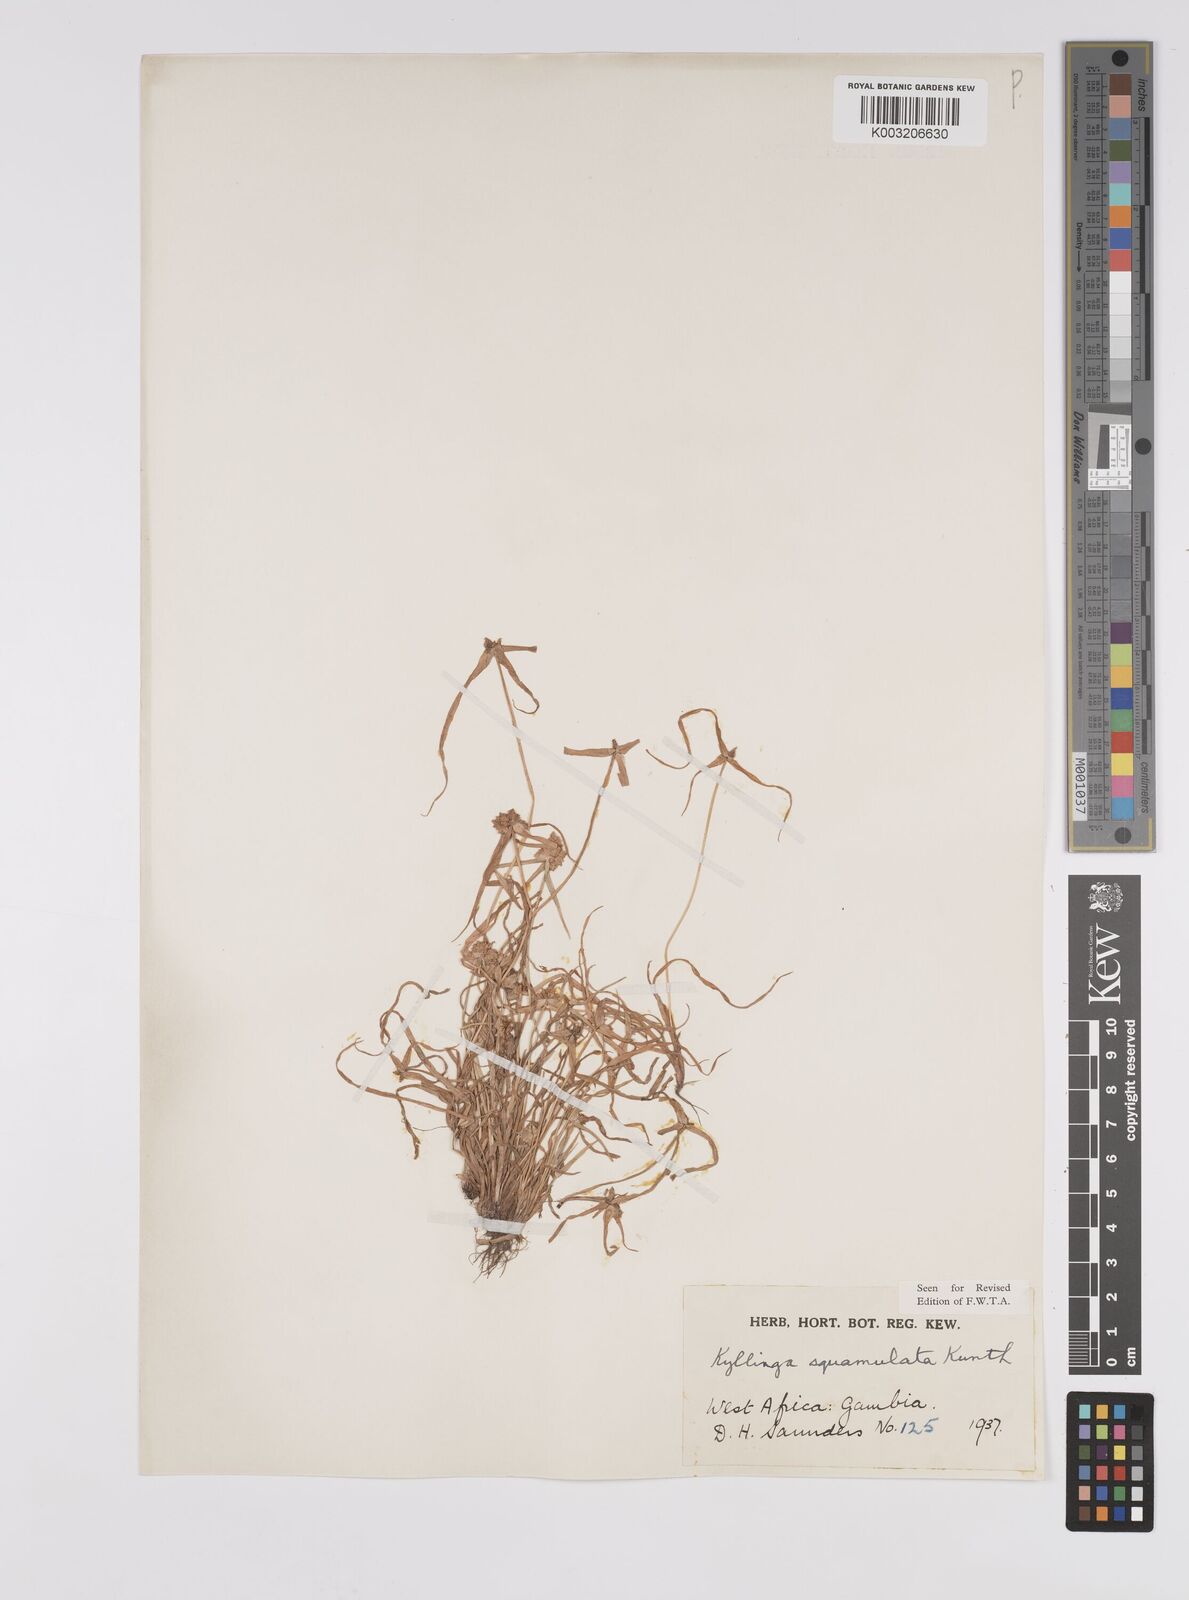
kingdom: Plantae
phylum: Tracheophyta
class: Liliopsida
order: Poales
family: Cyperaceae
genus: Cyperus
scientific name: Cyperus distans
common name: Slender cyperus
